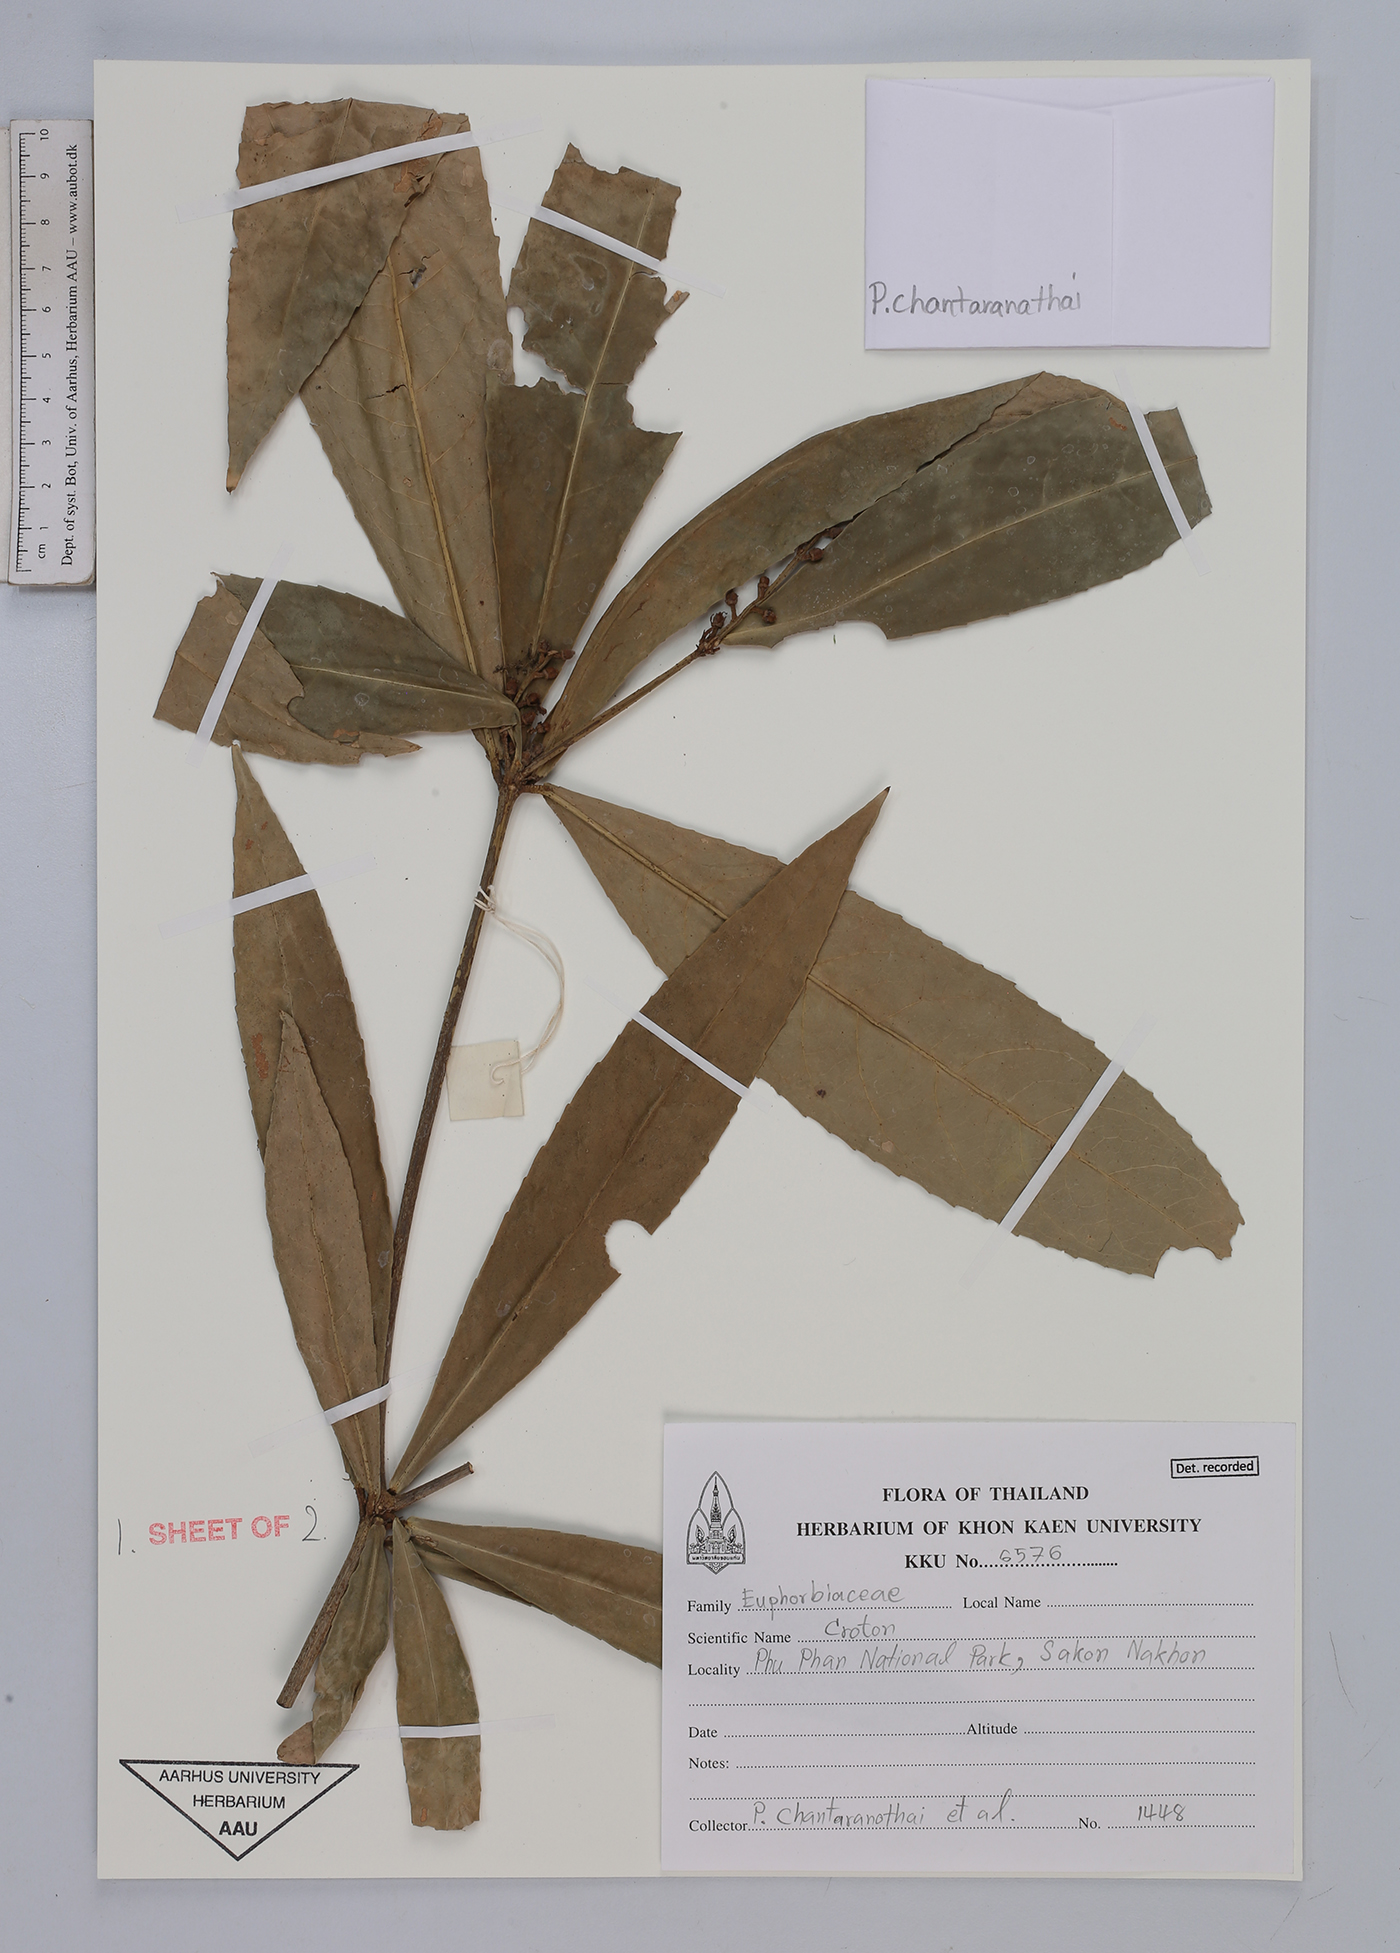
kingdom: Plantae
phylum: Tracheophyta
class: Magnoliopsida
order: Malpighiales
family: Euphorbiaceae
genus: Croton
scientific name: Croton
